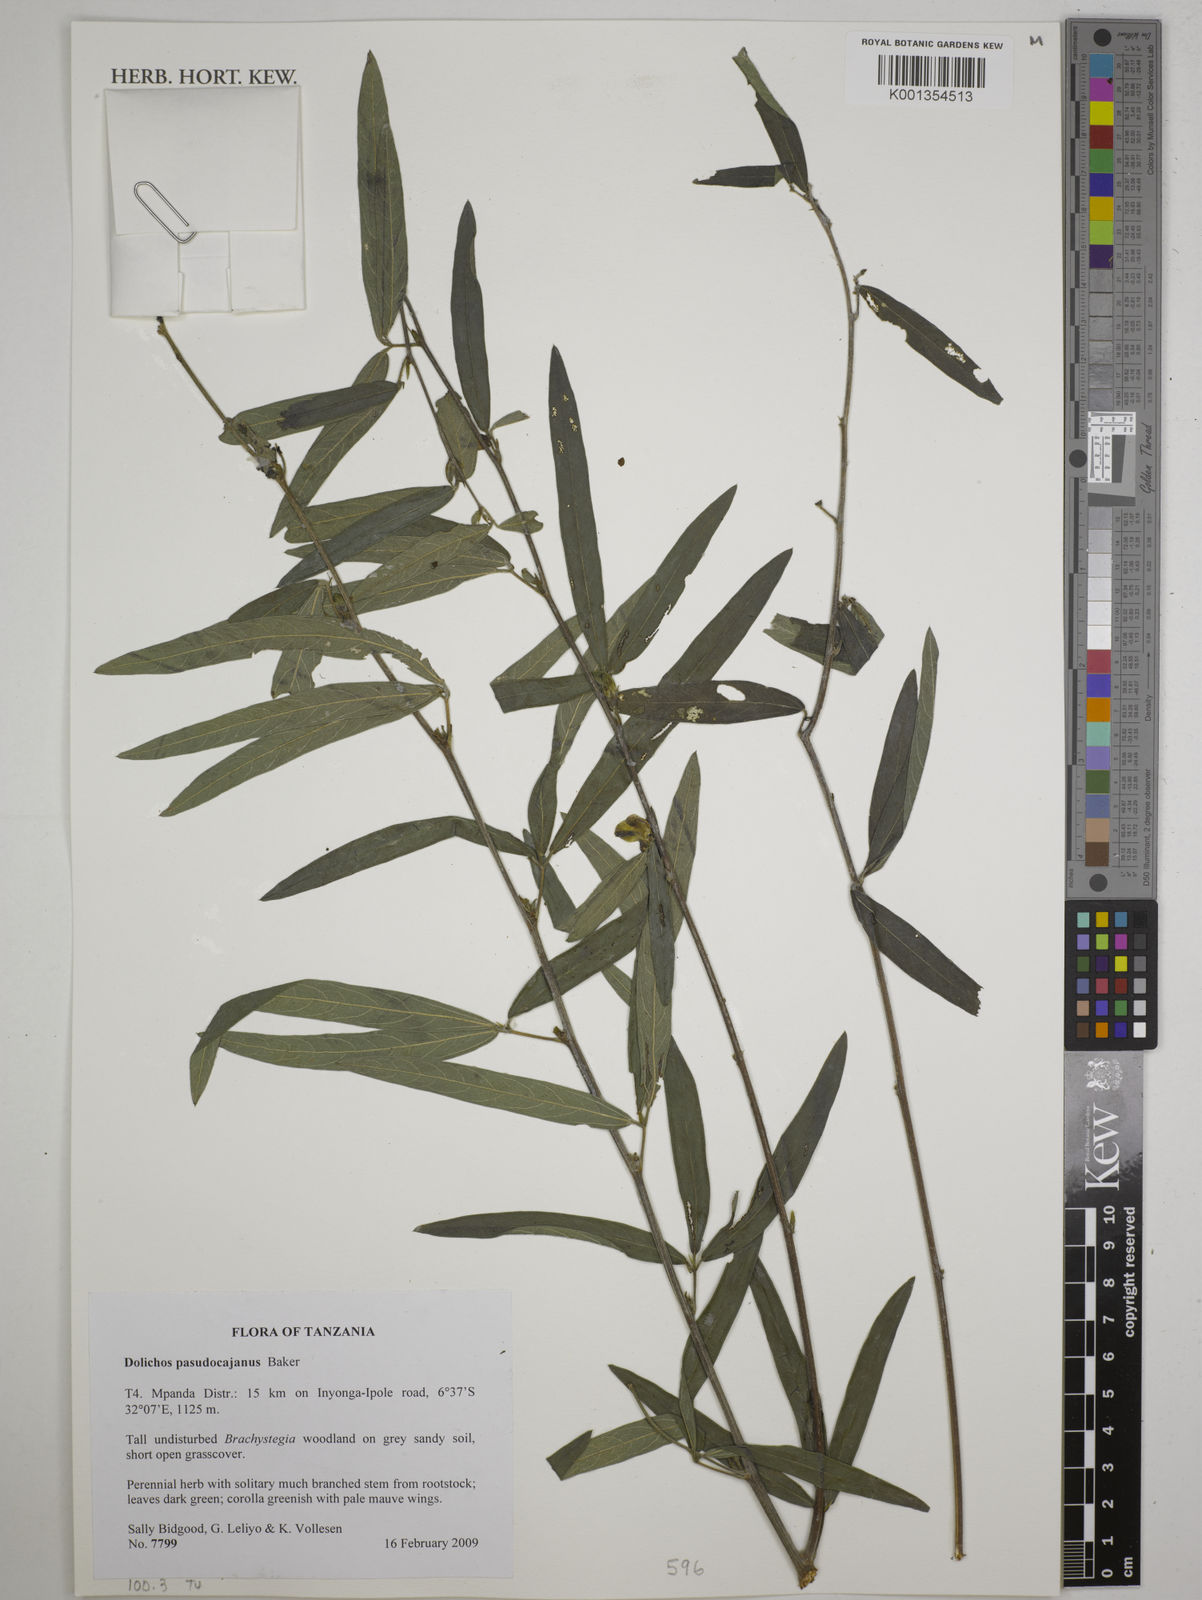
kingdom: Plantae
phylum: Tracheophyta
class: Magnoliopsida
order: Fabales
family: Fabaceae
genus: Dolichos
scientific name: Dolichos pseudocajanus
